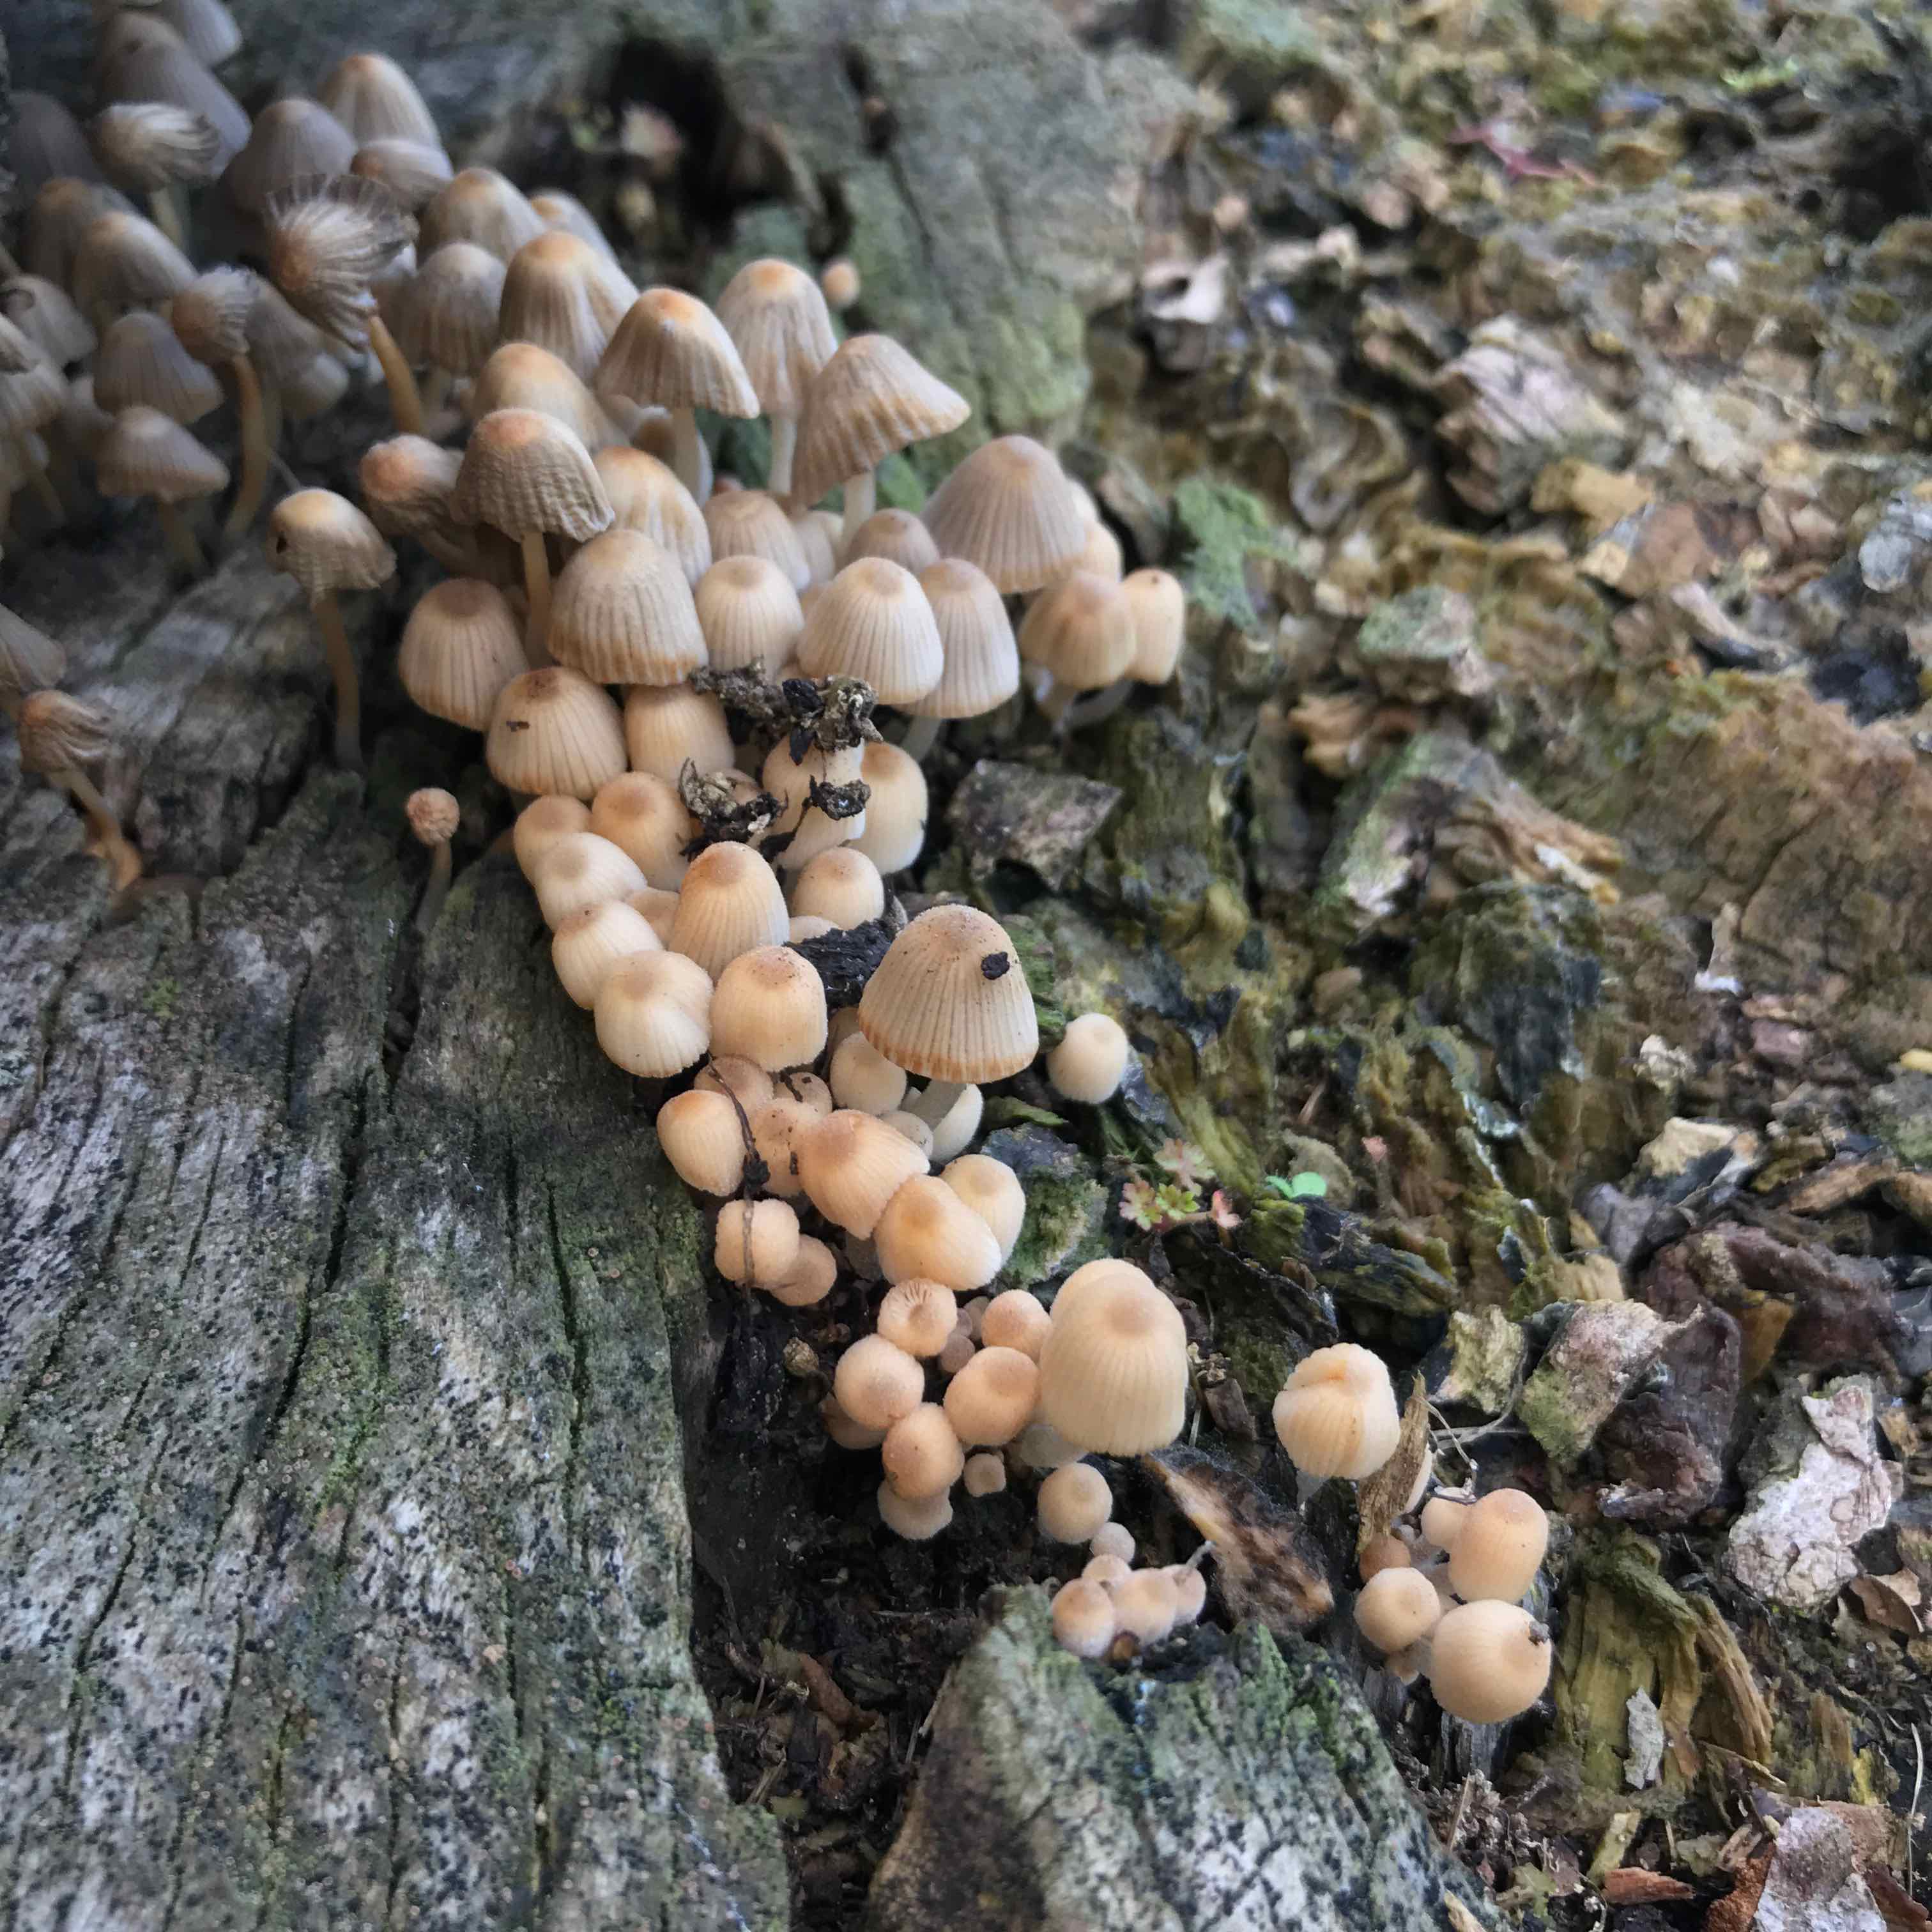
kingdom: Fungi
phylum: Basidiomycota
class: Agaricomycetes
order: Agaricales
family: Psathyrellaceae
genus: Coprinellus
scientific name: Coprinellus disseminatus
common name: bredsået blækhat
